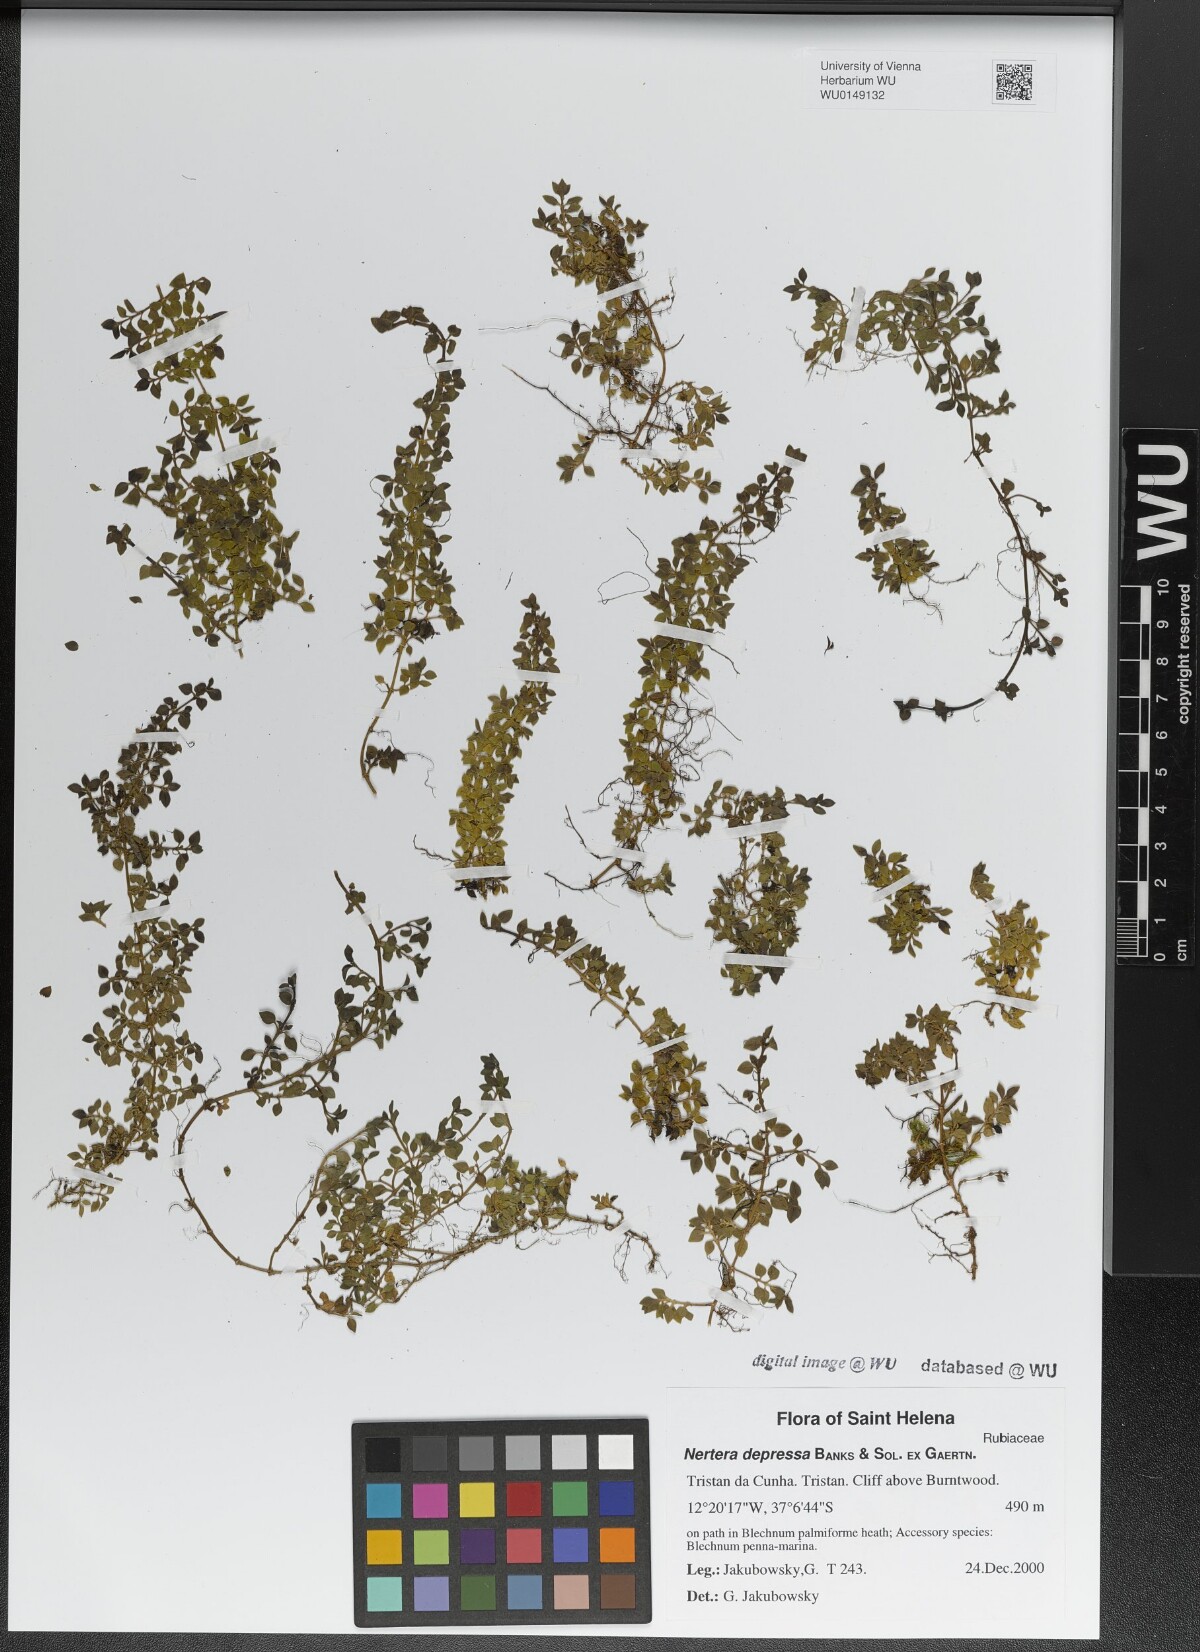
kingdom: Plantae
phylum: Tracheophyta
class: Magnoliopsida
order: Gentianales
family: Rubiaceae
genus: Nertera
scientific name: Nertera granadensis
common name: Beadplant
